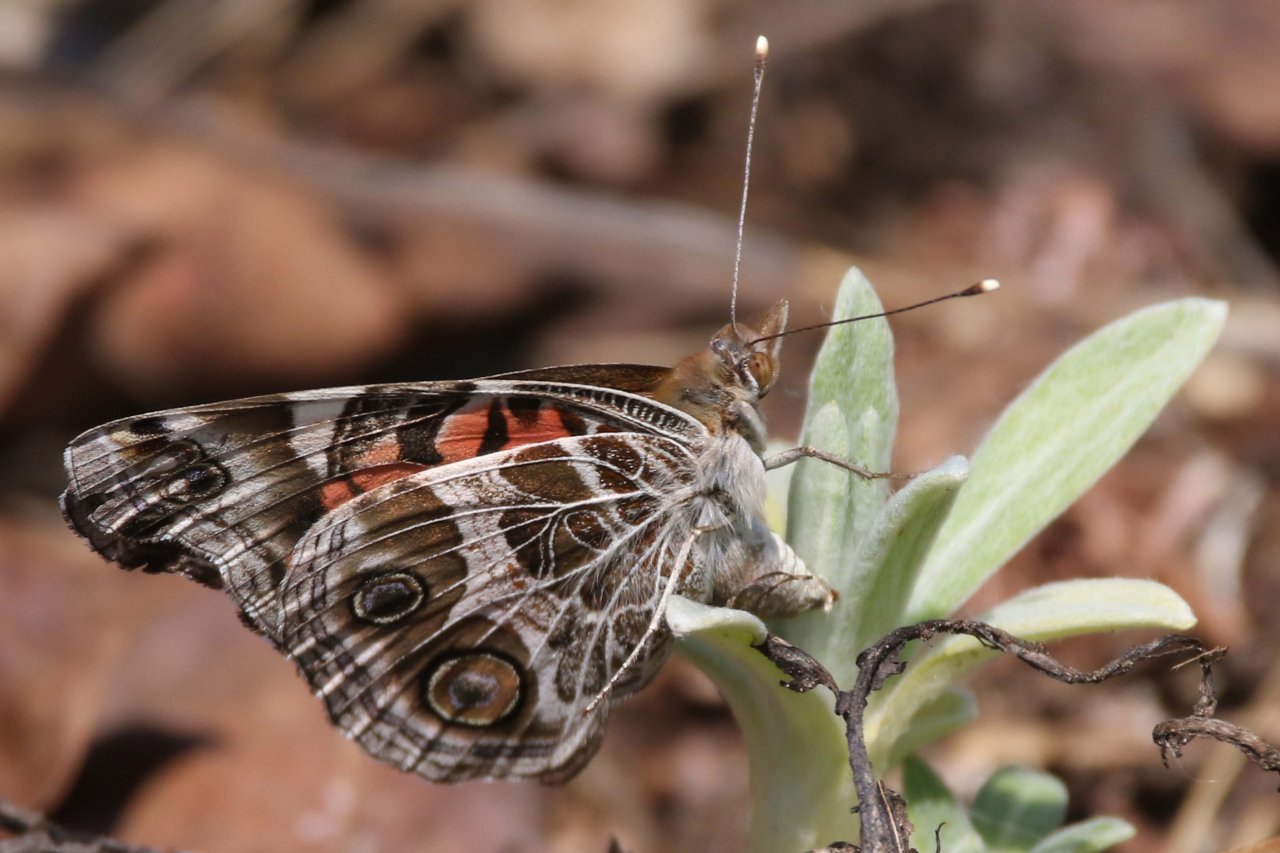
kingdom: Animalia
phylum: Arthropoda
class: Insecta
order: Lepidoptera
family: Nymphalidae
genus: Vanessa
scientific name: Vanessa virginiensis
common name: American Lady
